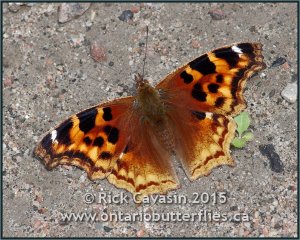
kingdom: Animalia
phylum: Arthropoda
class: Insecta
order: Lepidoptera
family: Nymphalidae
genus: Polygonia
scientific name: Polygonia vaualbum
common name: Compton Tortoiseshell
